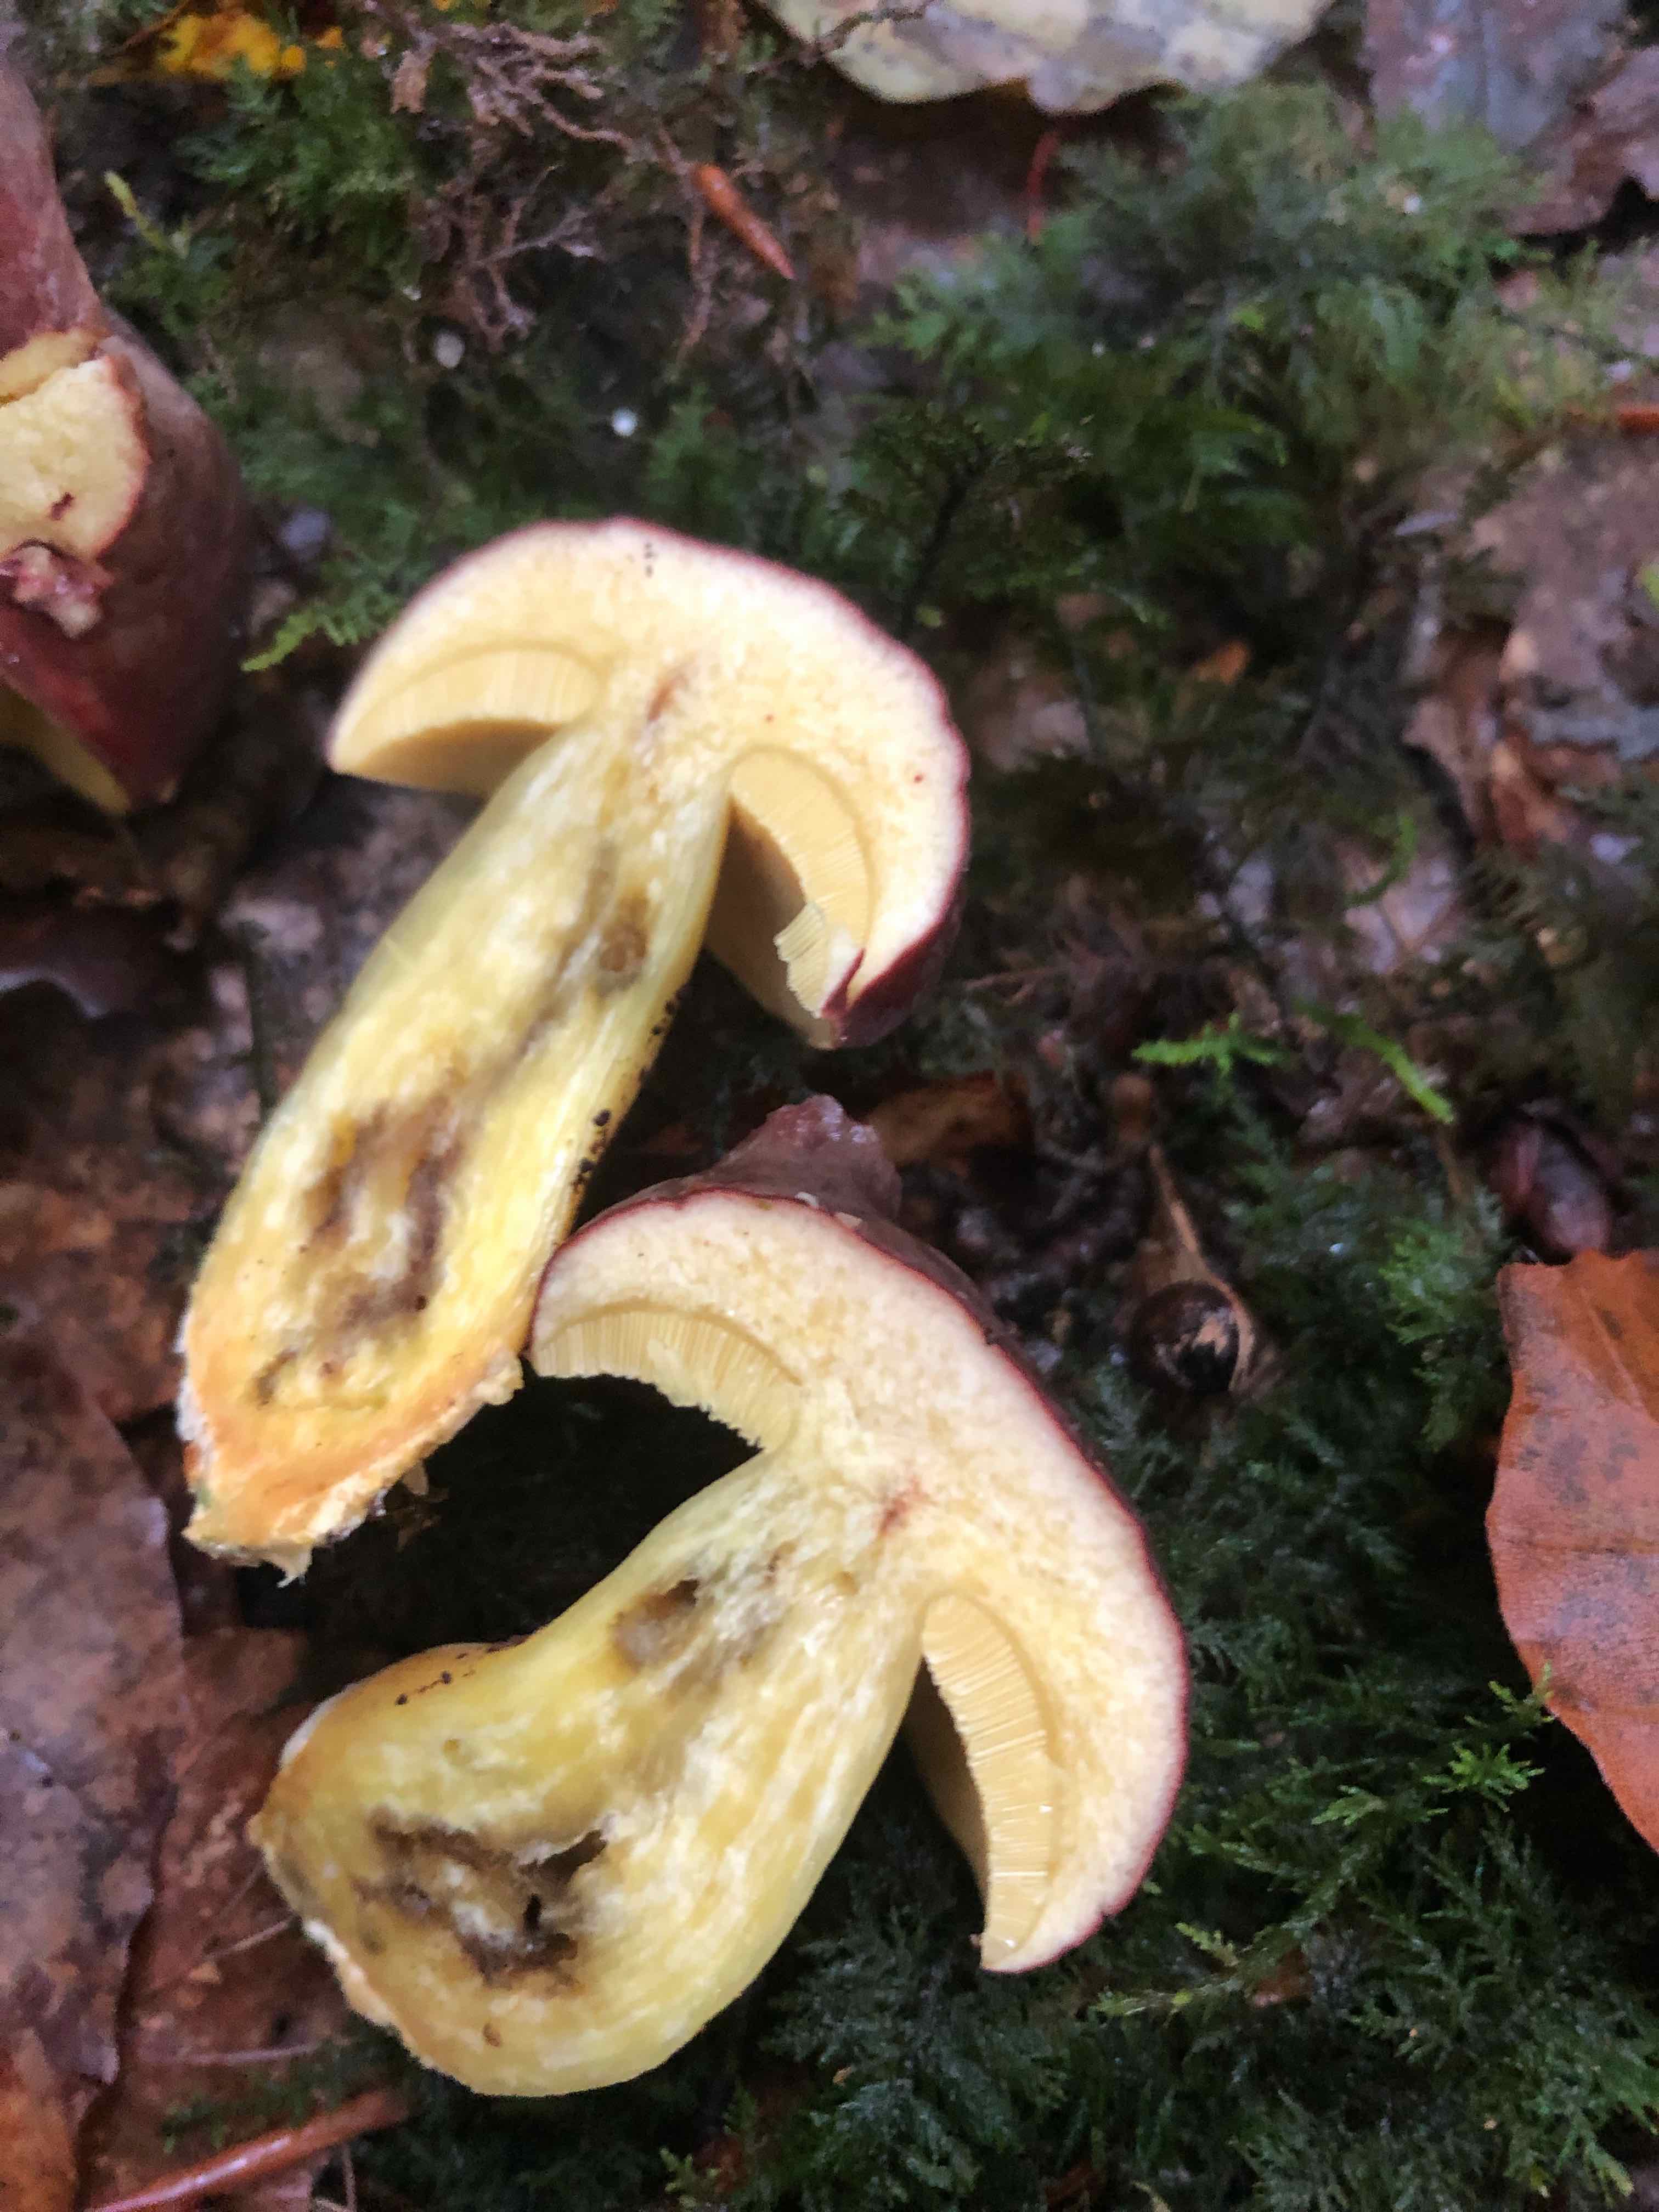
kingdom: Fungi
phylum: Basidiomycota
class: Agaricomycetes
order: Boletales
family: Boletaceae
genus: Xerocomellus
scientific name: Xerocomellus pruinatus
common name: dugget rørhat
